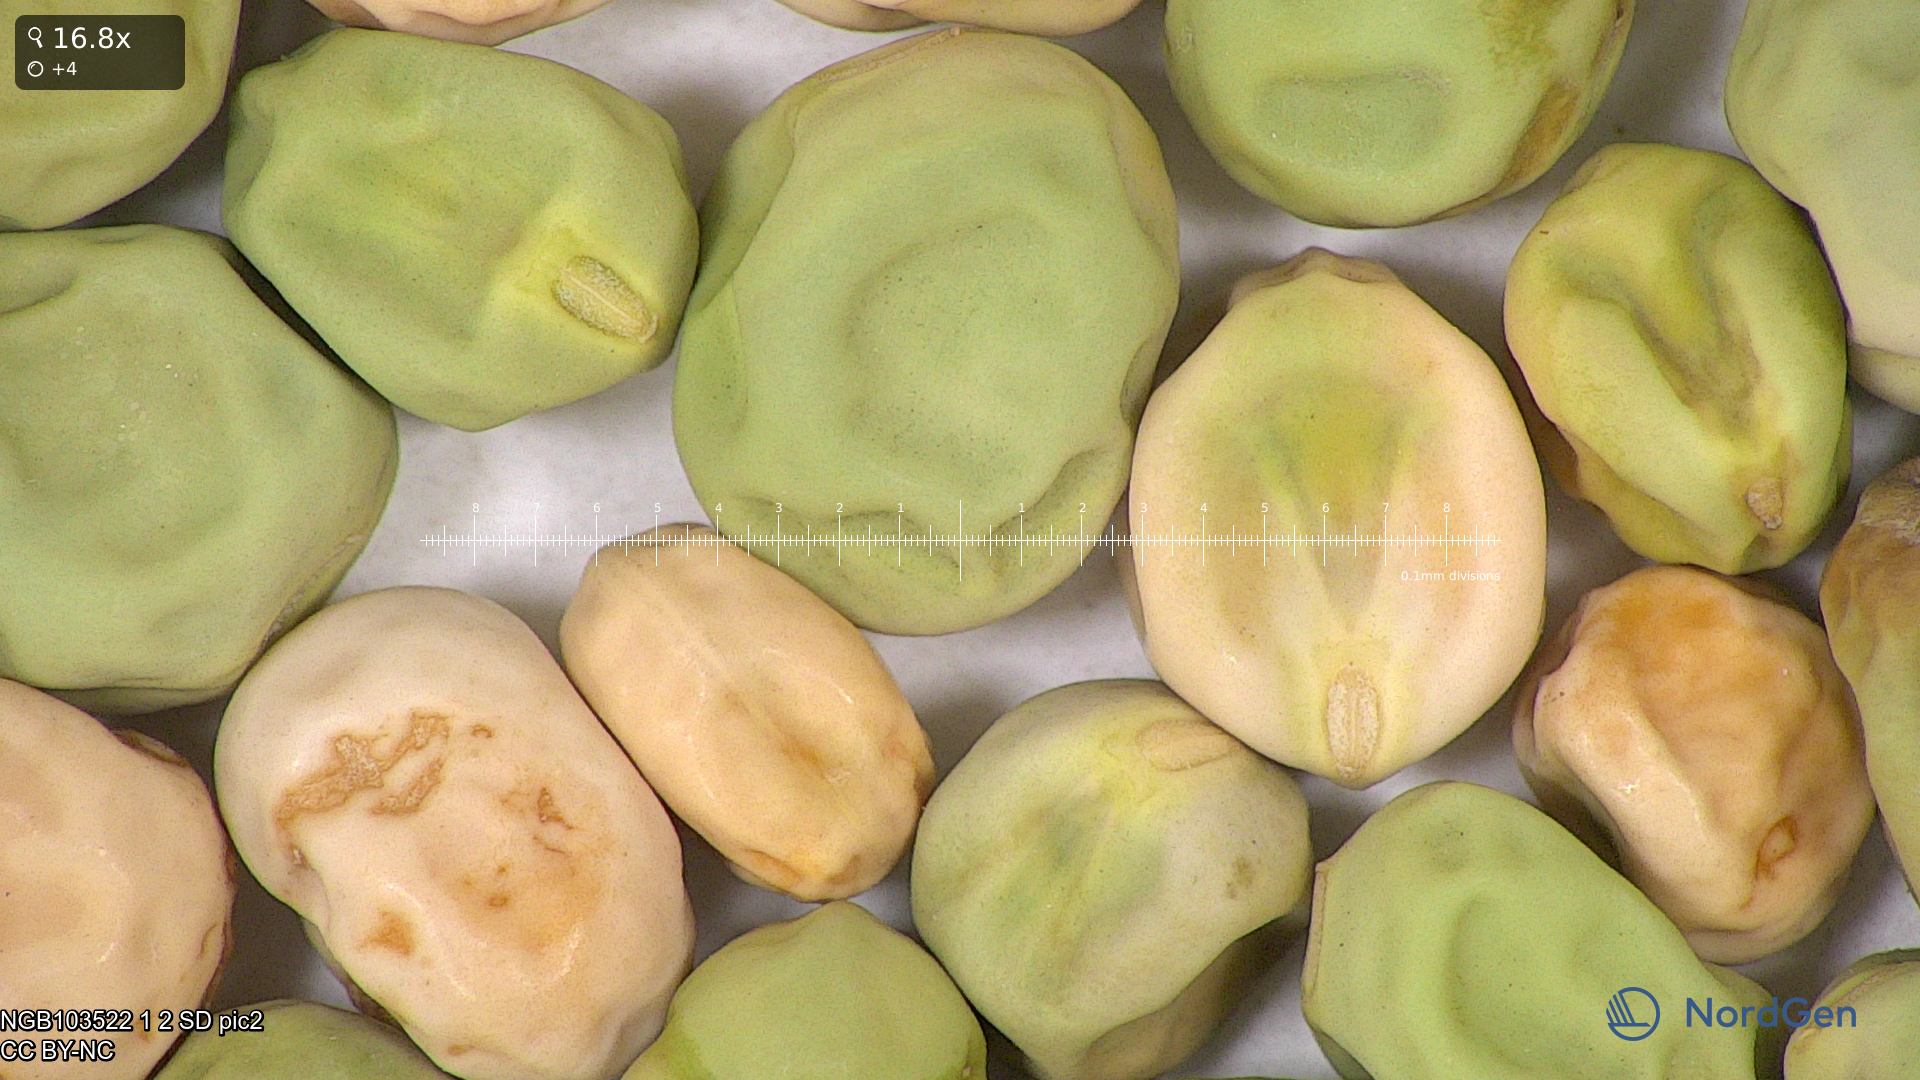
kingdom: Plantae
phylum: Tracheophyta
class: Magnoliopsida
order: Fabales
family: Fabaceae
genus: Lathyrus
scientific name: Lathyrus oleraceus
